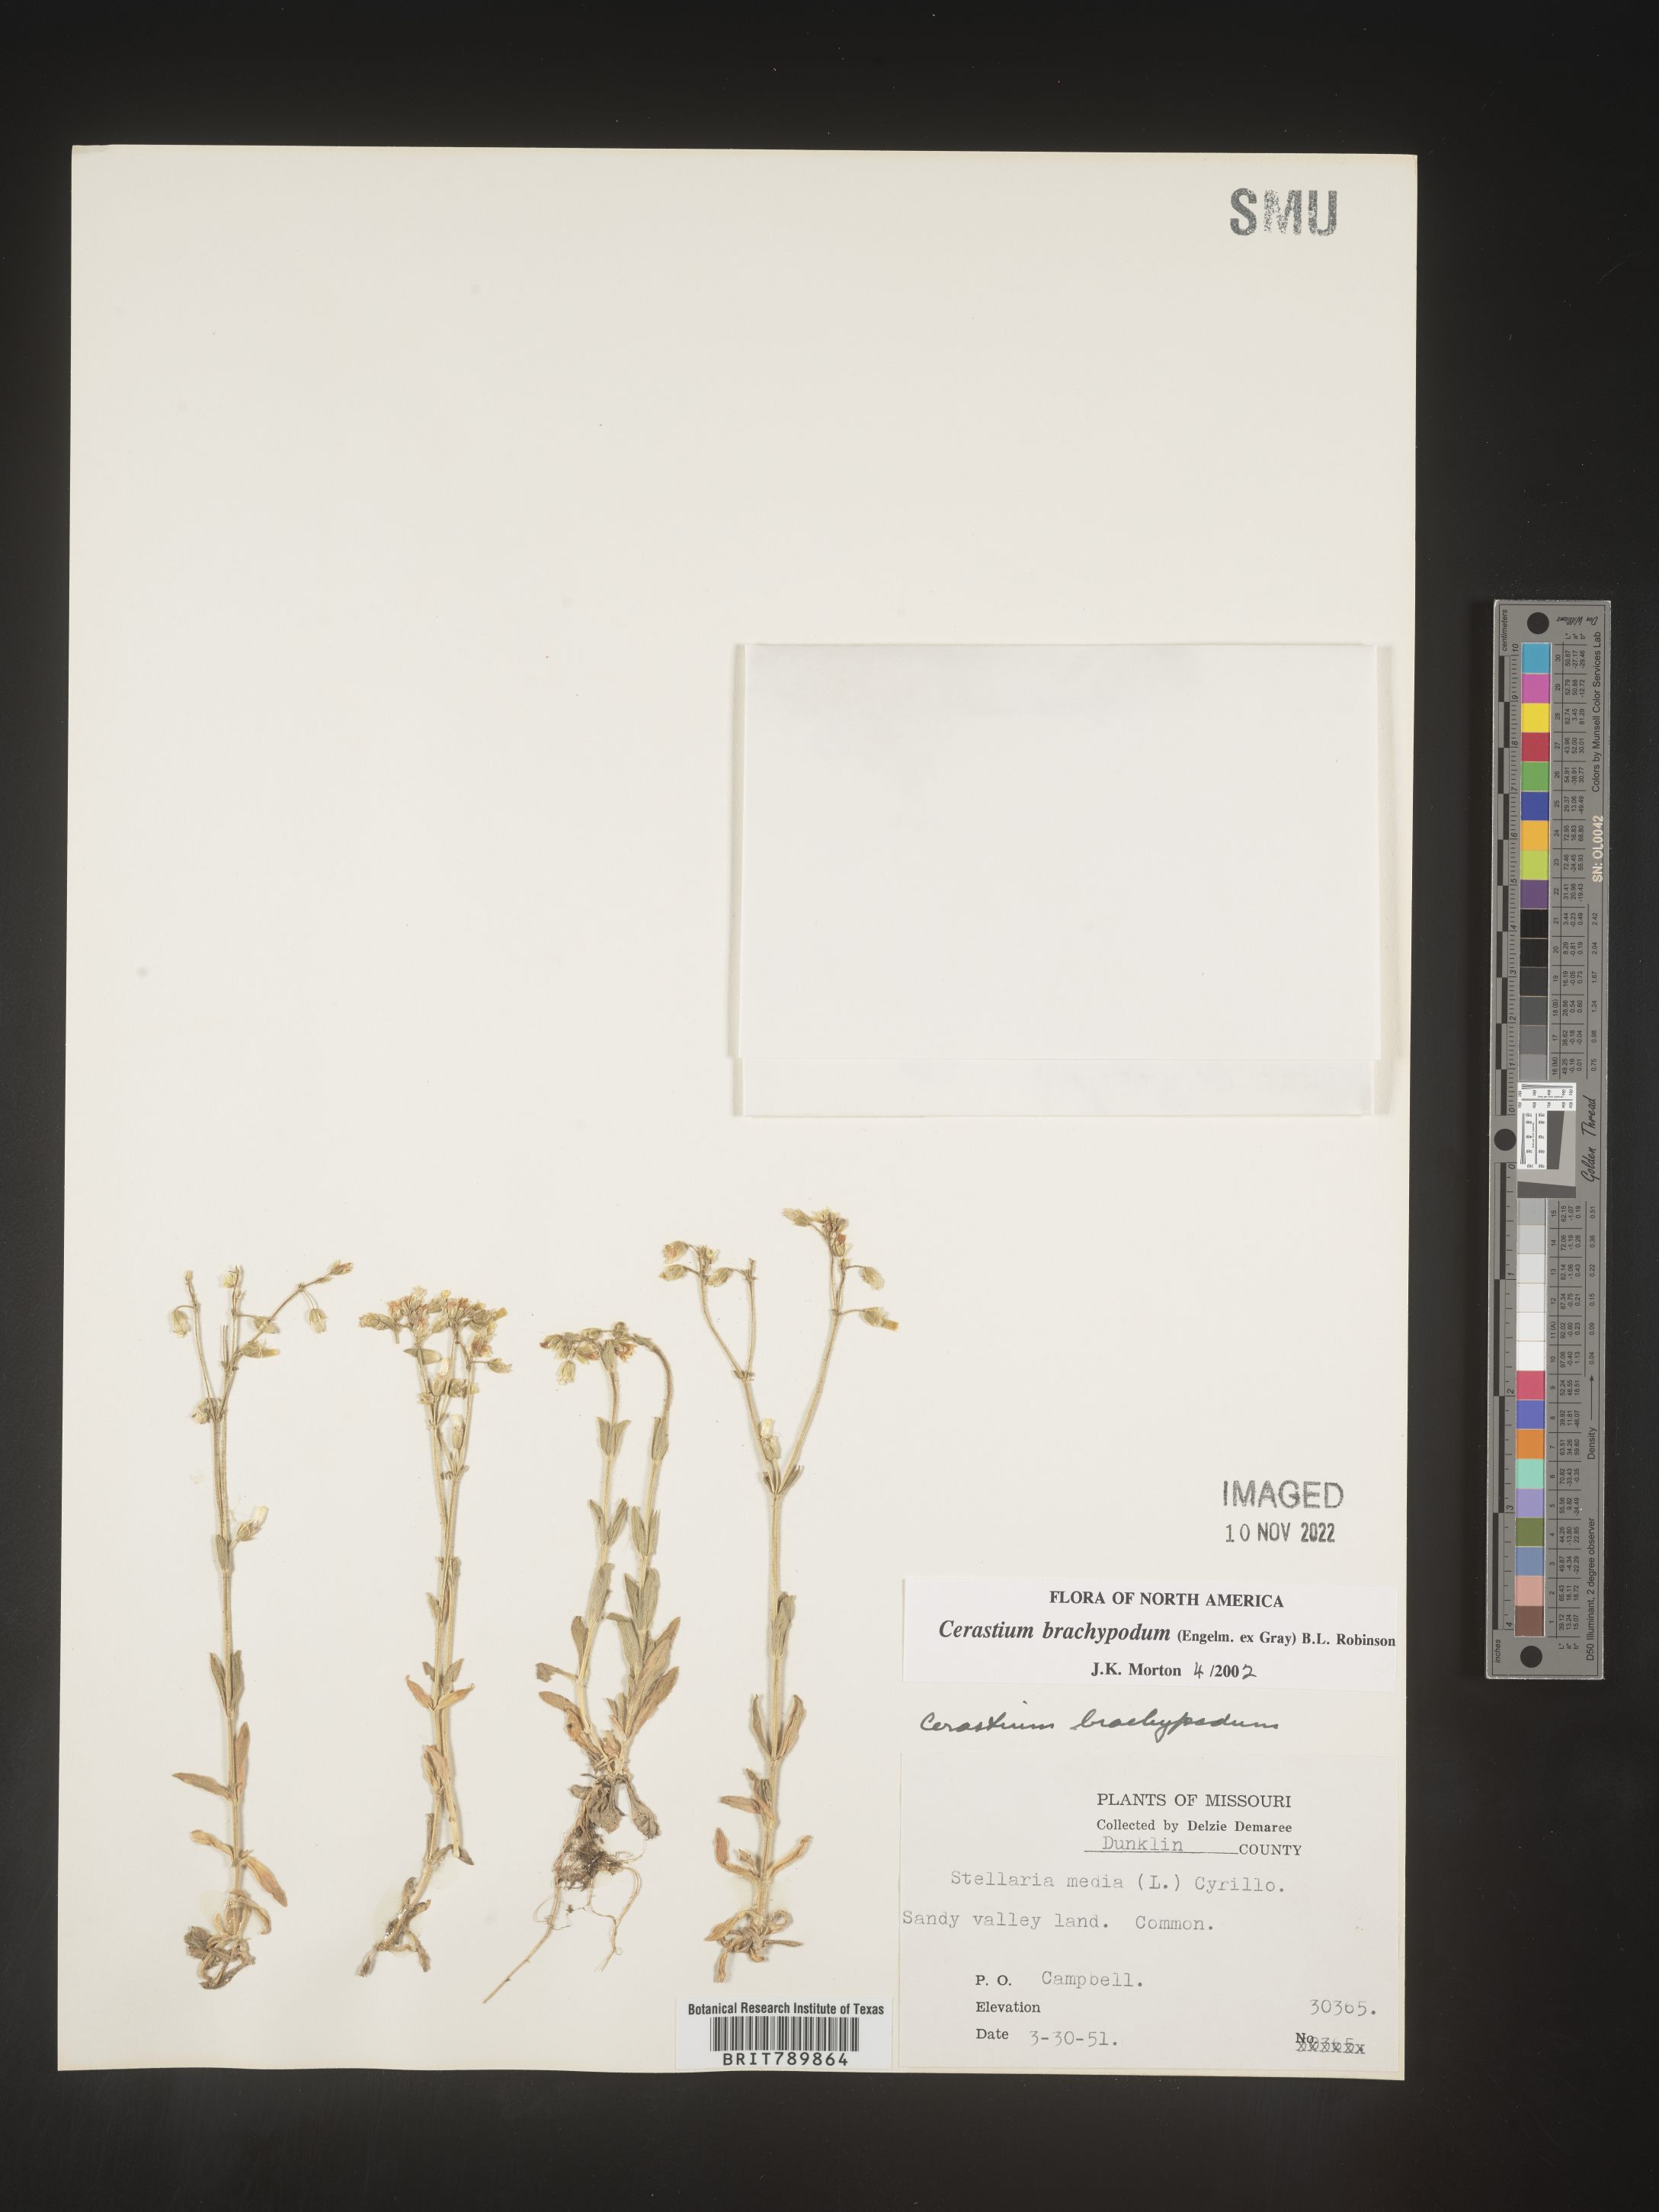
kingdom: Plantae
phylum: Tracheophyta
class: Magnoliopsida
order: Caryophyllales
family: Caryophyllaceae
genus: Cerastium
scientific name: Cerastium brachypodum
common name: Short-pedicelled nodding chickweed
